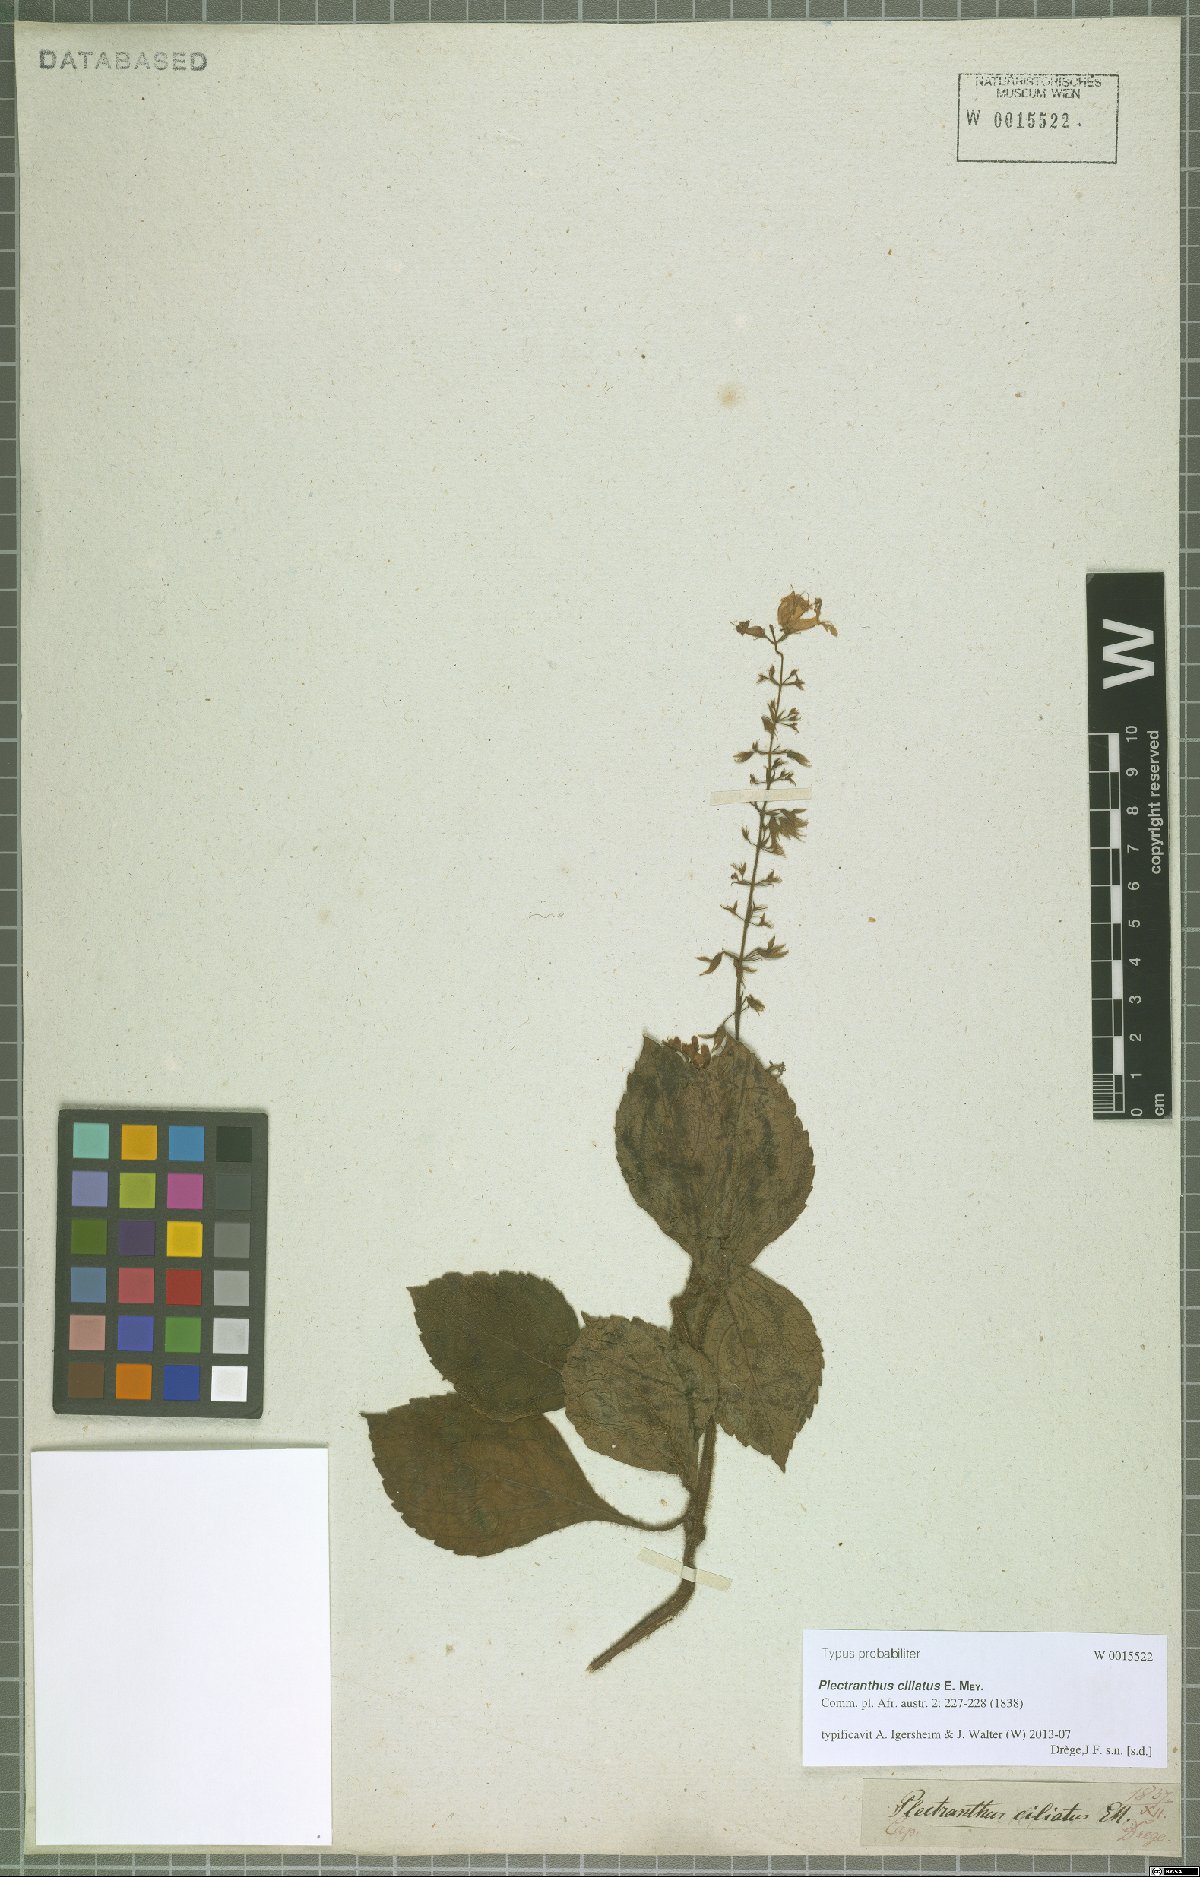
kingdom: Plantae
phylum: Tracheophyta
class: Magnoliopsida
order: Lamiales
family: Lamiaceae
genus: Plectranthus
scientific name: Plectranthus ciliatus
